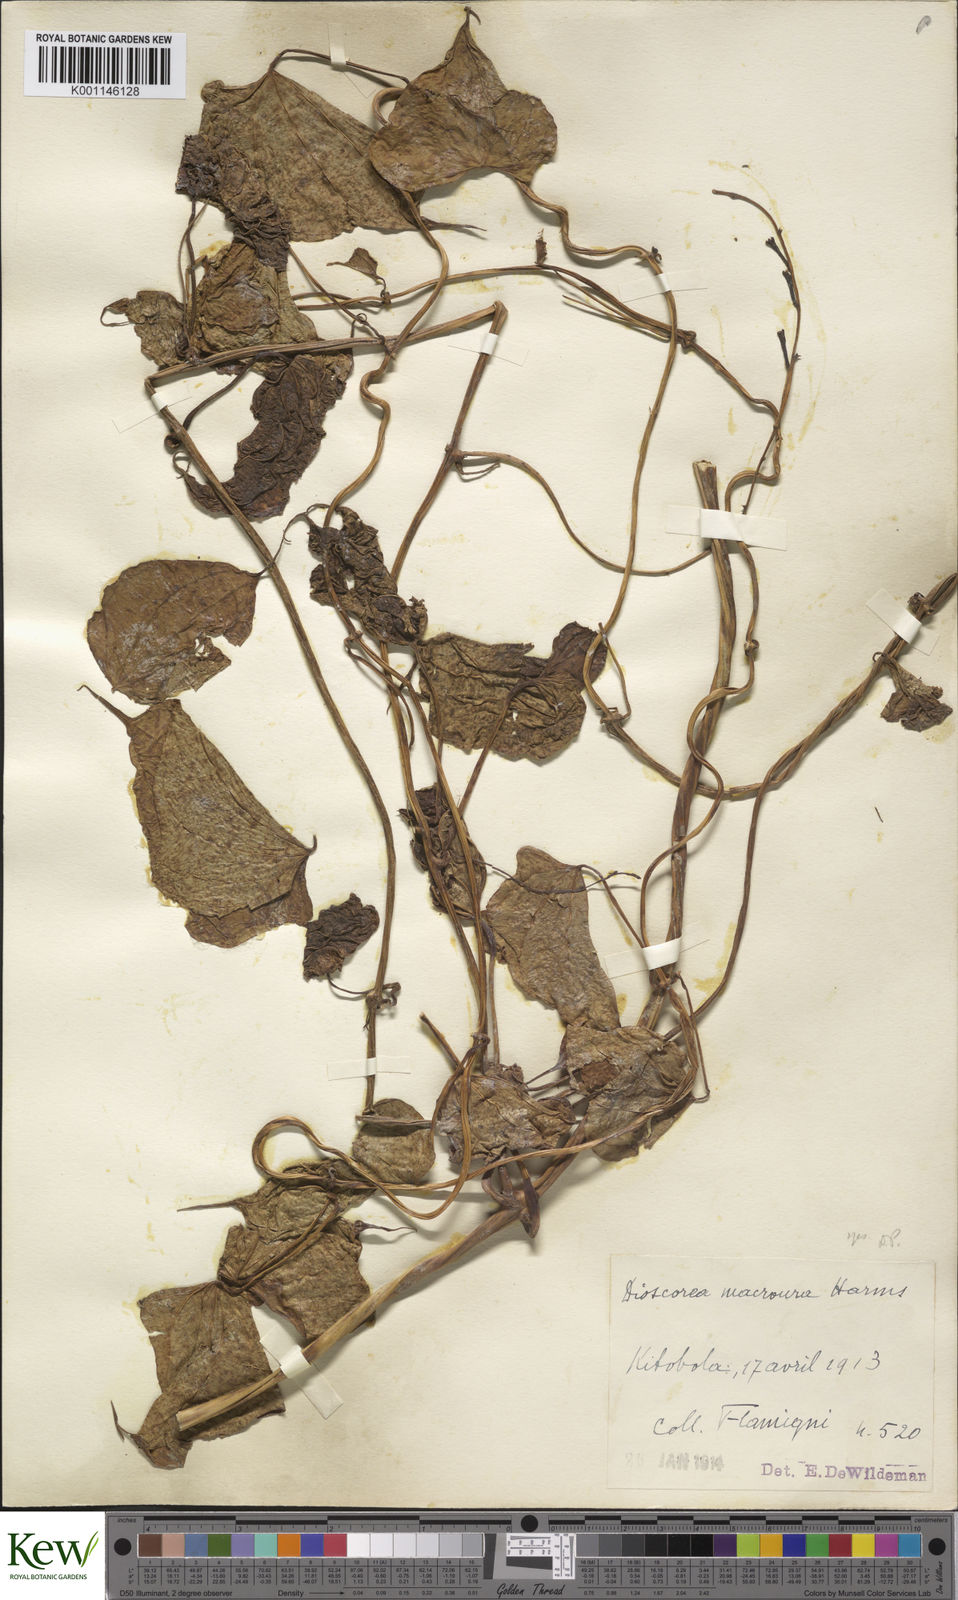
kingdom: Plantae
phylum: Tracheophyta
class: Liliopsida
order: Dioscoreales
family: Dioscoreaceae
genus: Dioscorea
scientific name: Dioscorea sansibarensis
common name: Zanzibar yam
